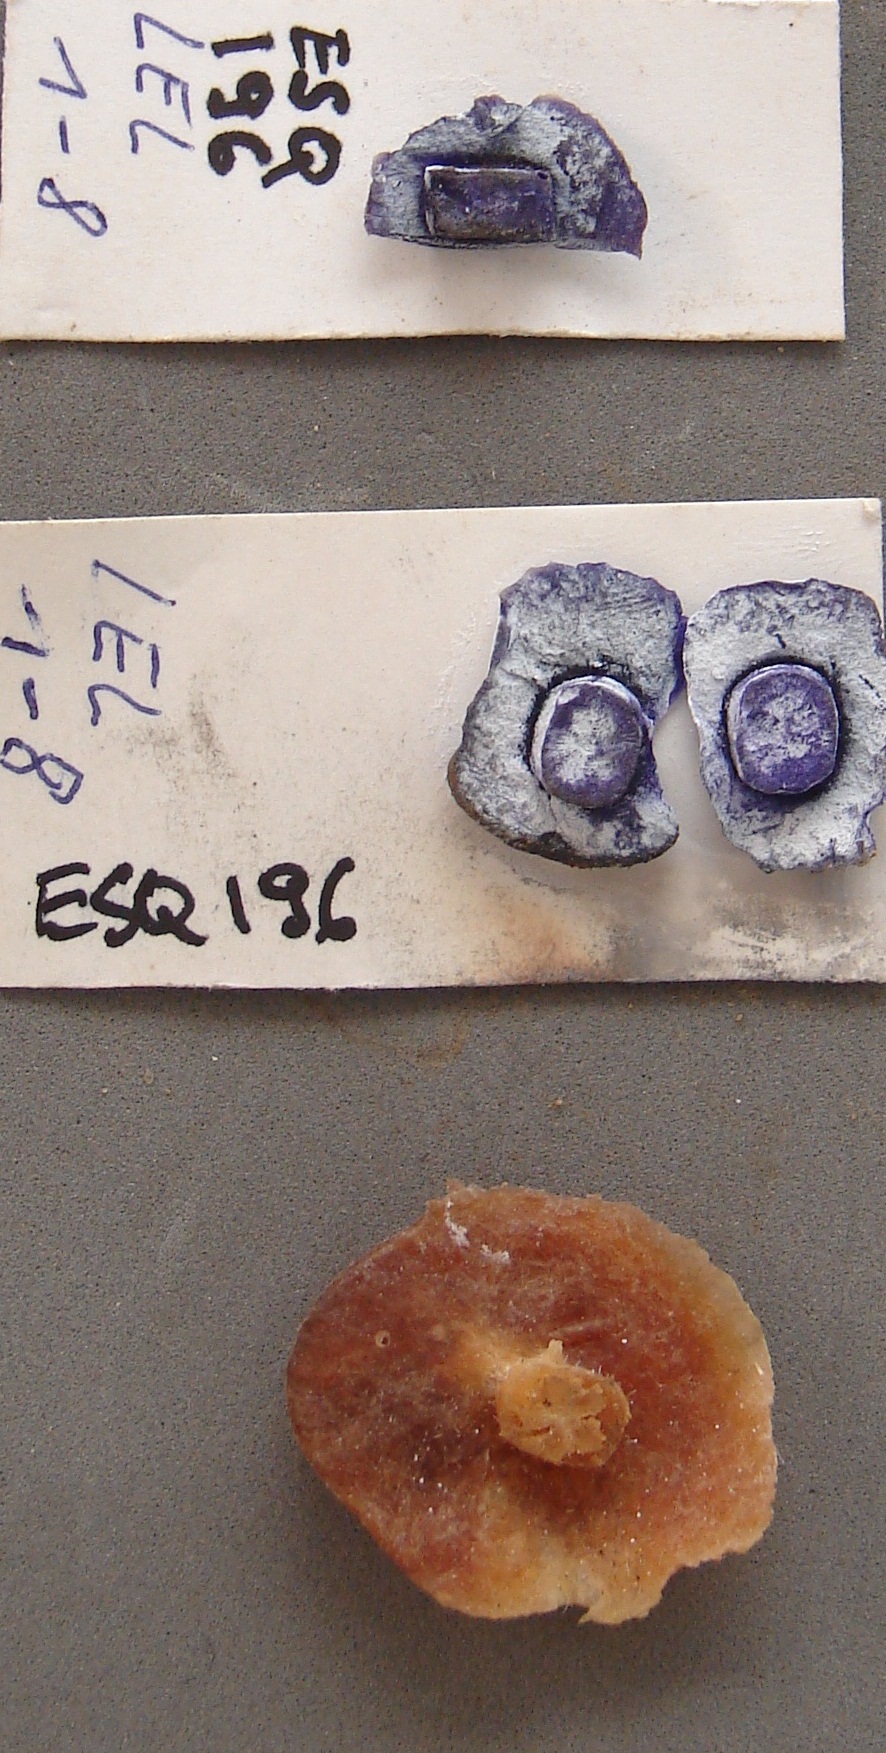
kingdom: Animalia
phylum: Echinodermata
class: Crinoidea
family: Botryocrinidae
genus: Botryocrinus
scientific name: Botryocrinus
